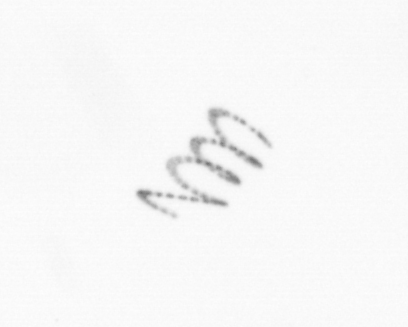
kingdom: Chromista
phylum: Ochrophyta
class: Bacillariophyceae
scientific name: Bacillariophyceae
